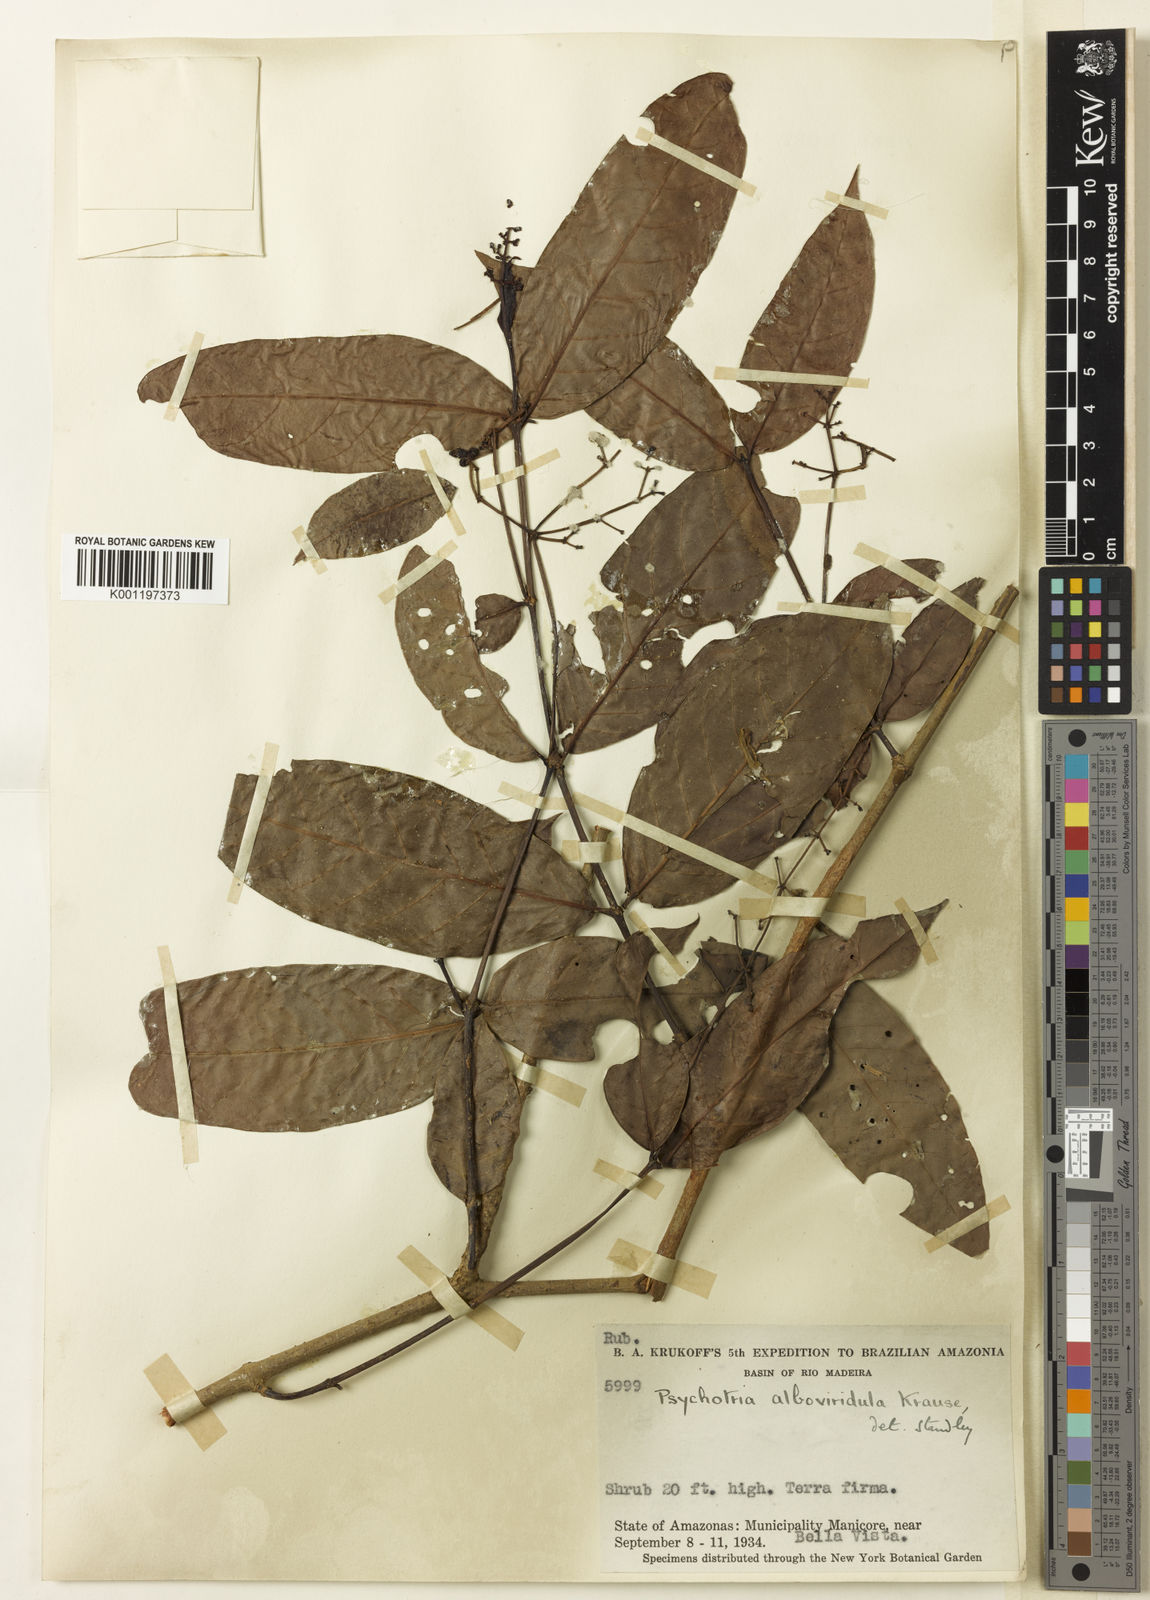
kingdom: Plantae
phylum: Tracheophyta
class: Magnoliopsida
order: Gentianales
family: Rubiaceae
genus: Psychotria
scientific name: Psychotria remota
